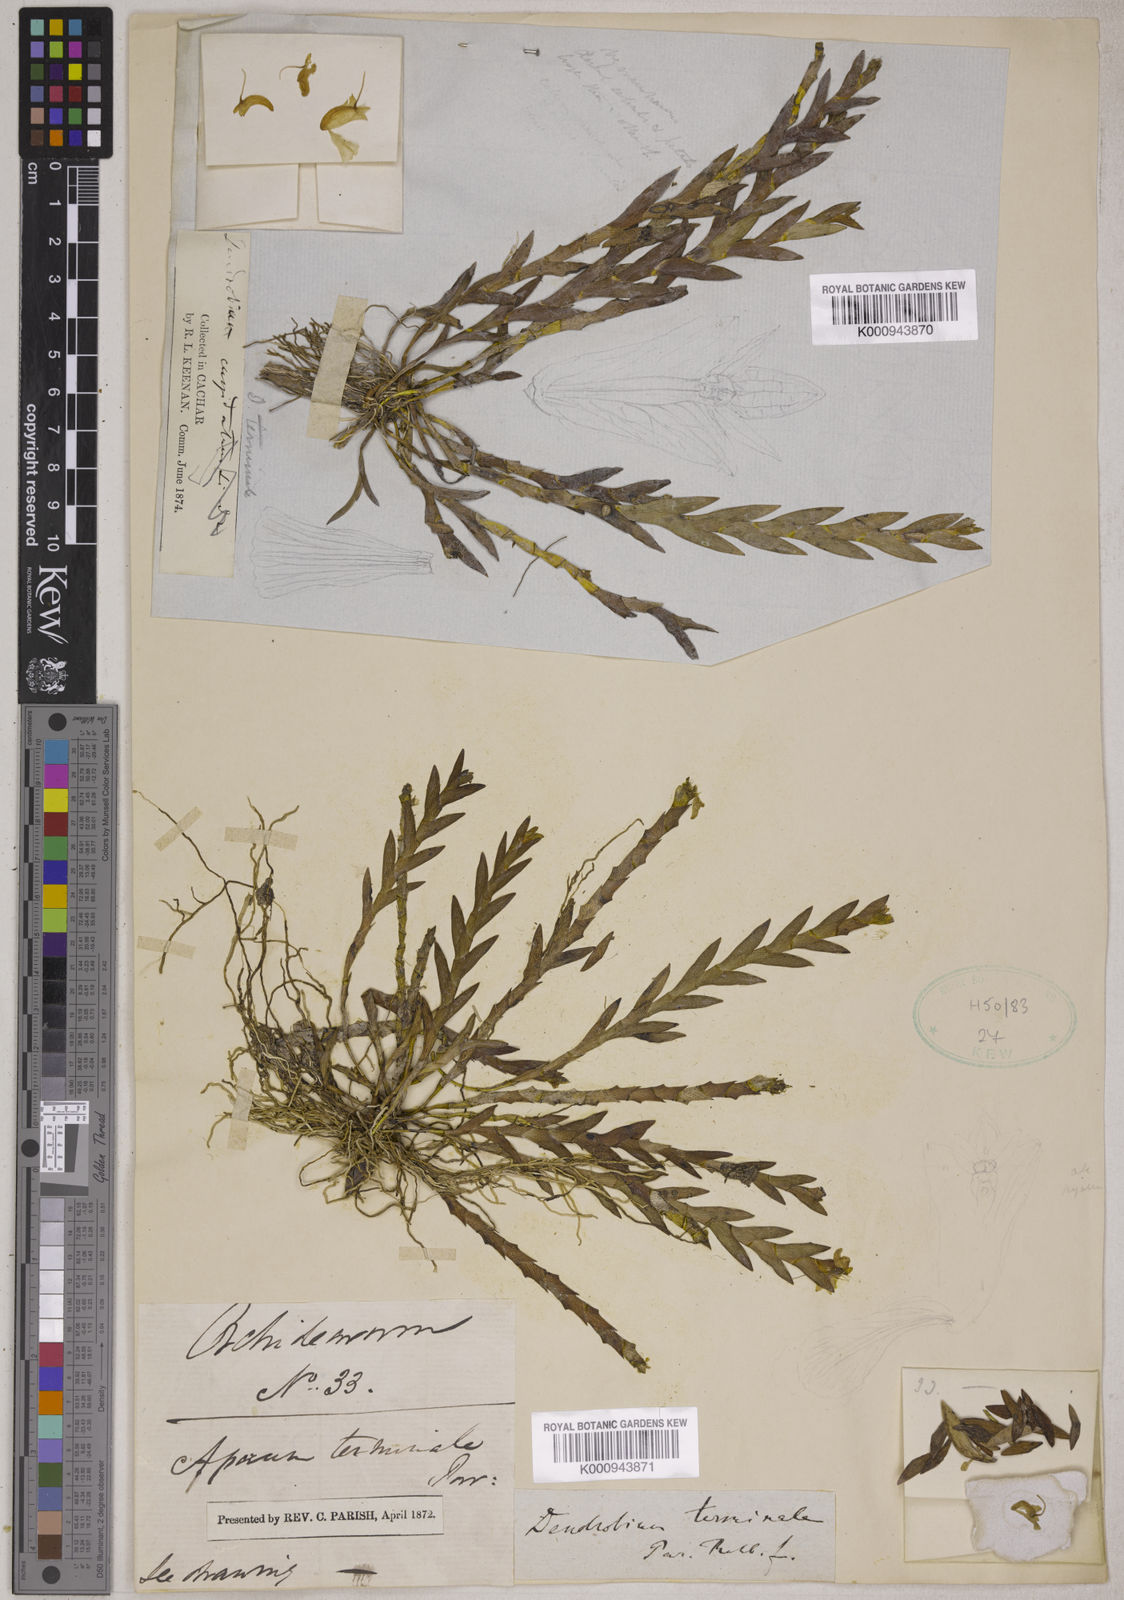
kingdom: Plantae
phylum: Tracheophyta
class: Liliopsida
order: Asparagales
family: Orchidaceae
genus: Dendrobium
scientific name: Dendrobium terminale
